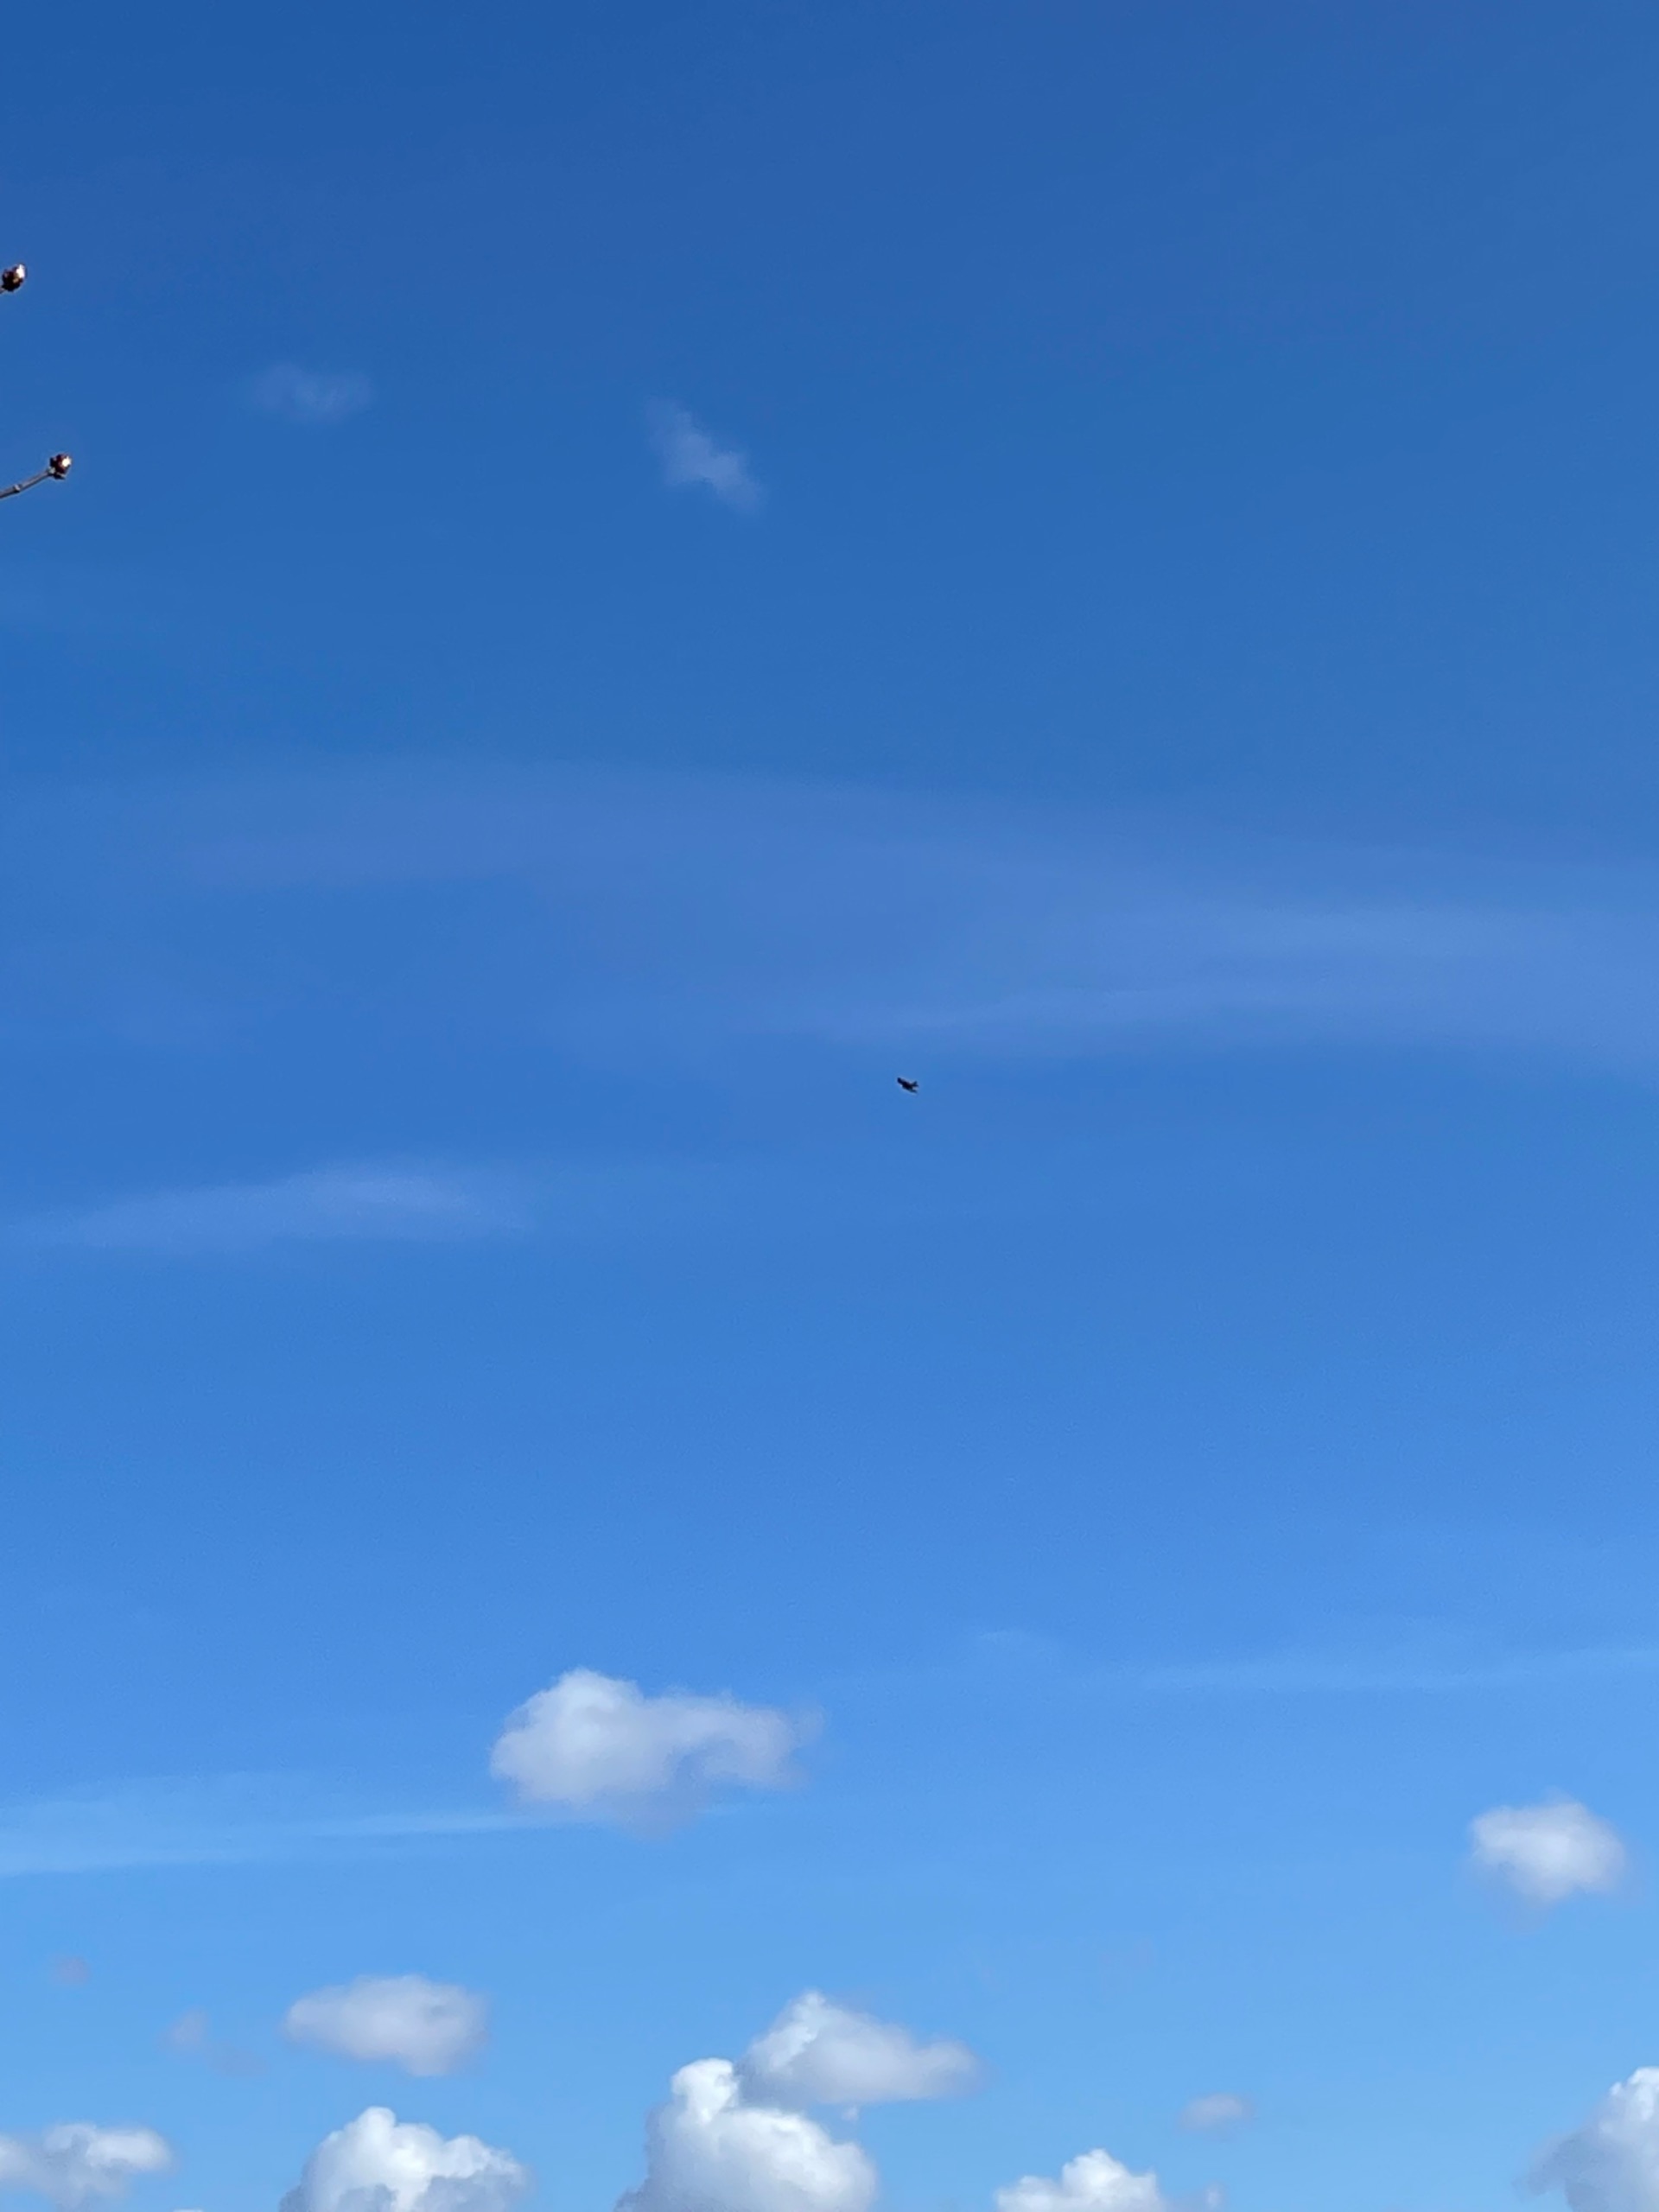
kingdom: Animalia
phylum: Chordata
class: Aves
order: Accipitriformes
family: Accipitridae
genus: Milvus
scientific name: Milvus milvus
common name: Rød glente
